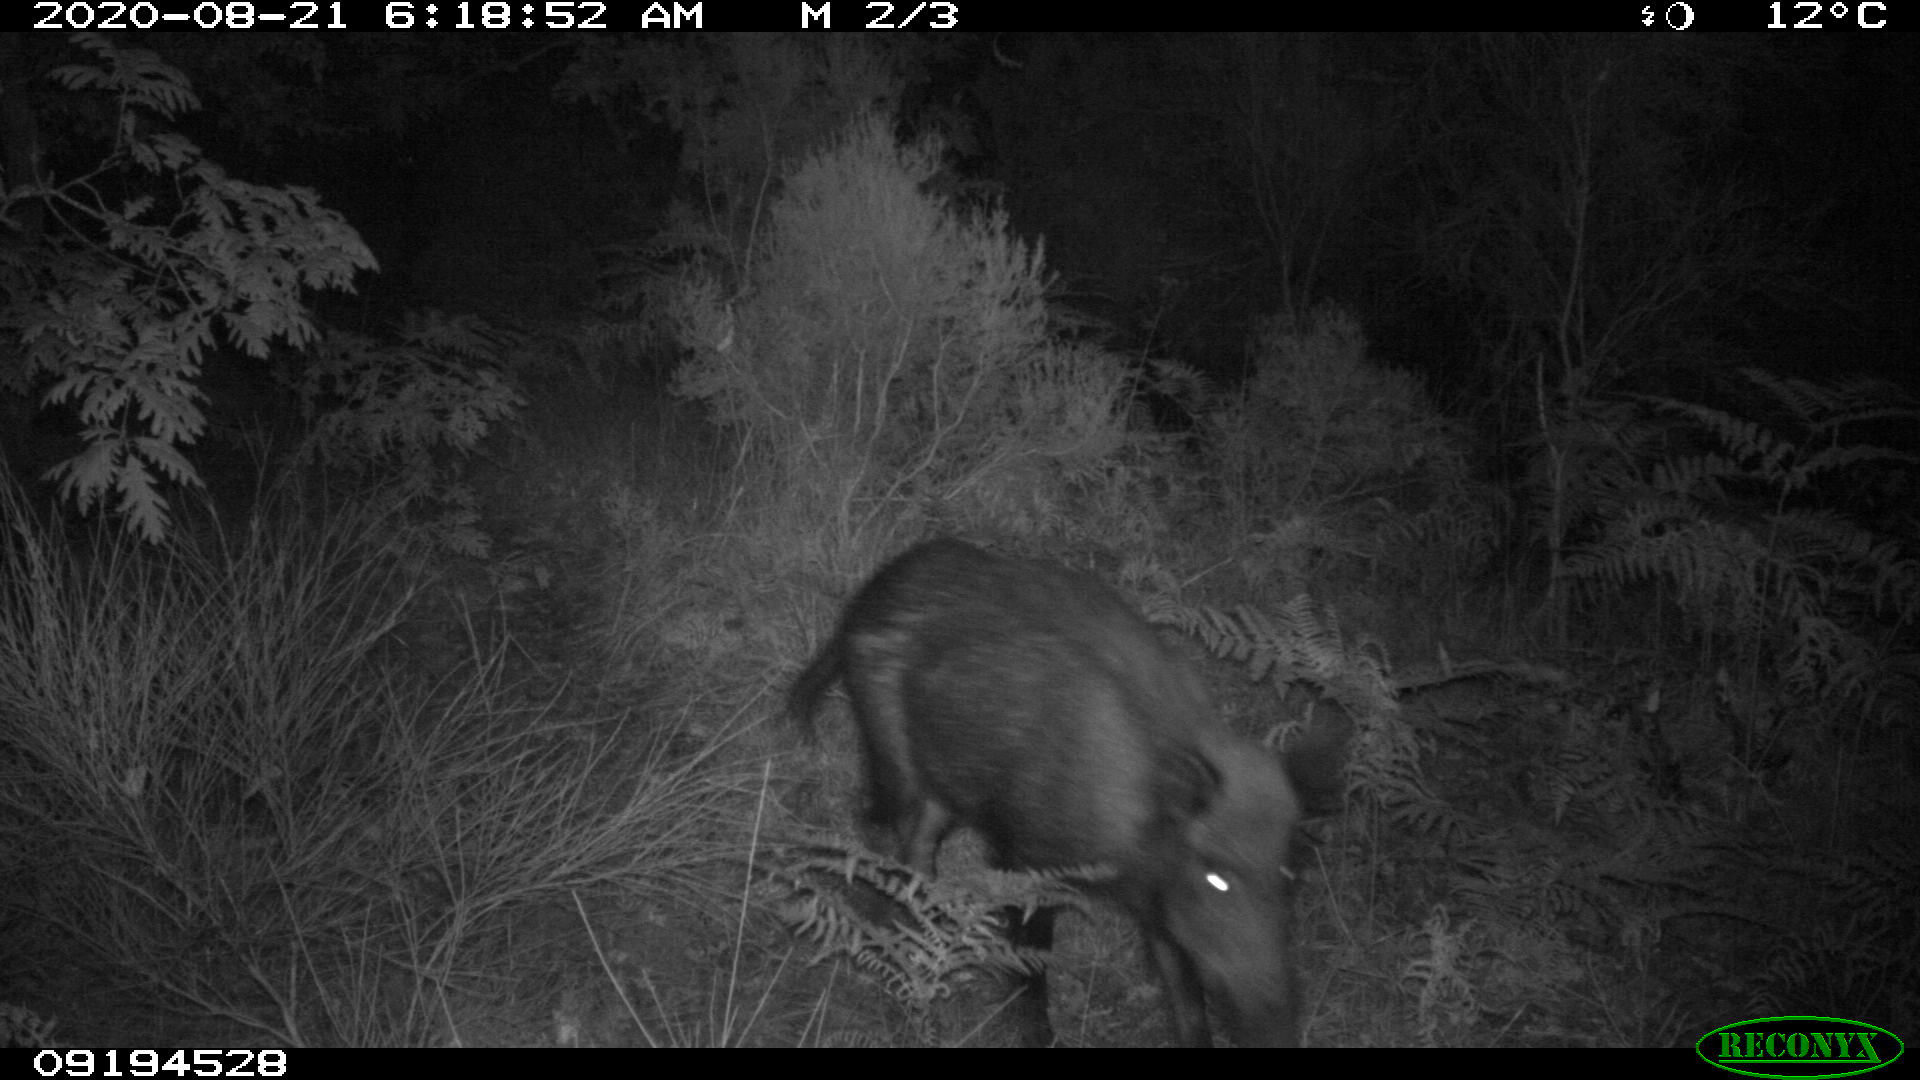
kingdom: Animalia
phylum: Chordata
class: Mammalia
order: Artiodactyla
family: Suidae
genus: Sus
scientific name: Sus scrofa
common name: Wild boar
